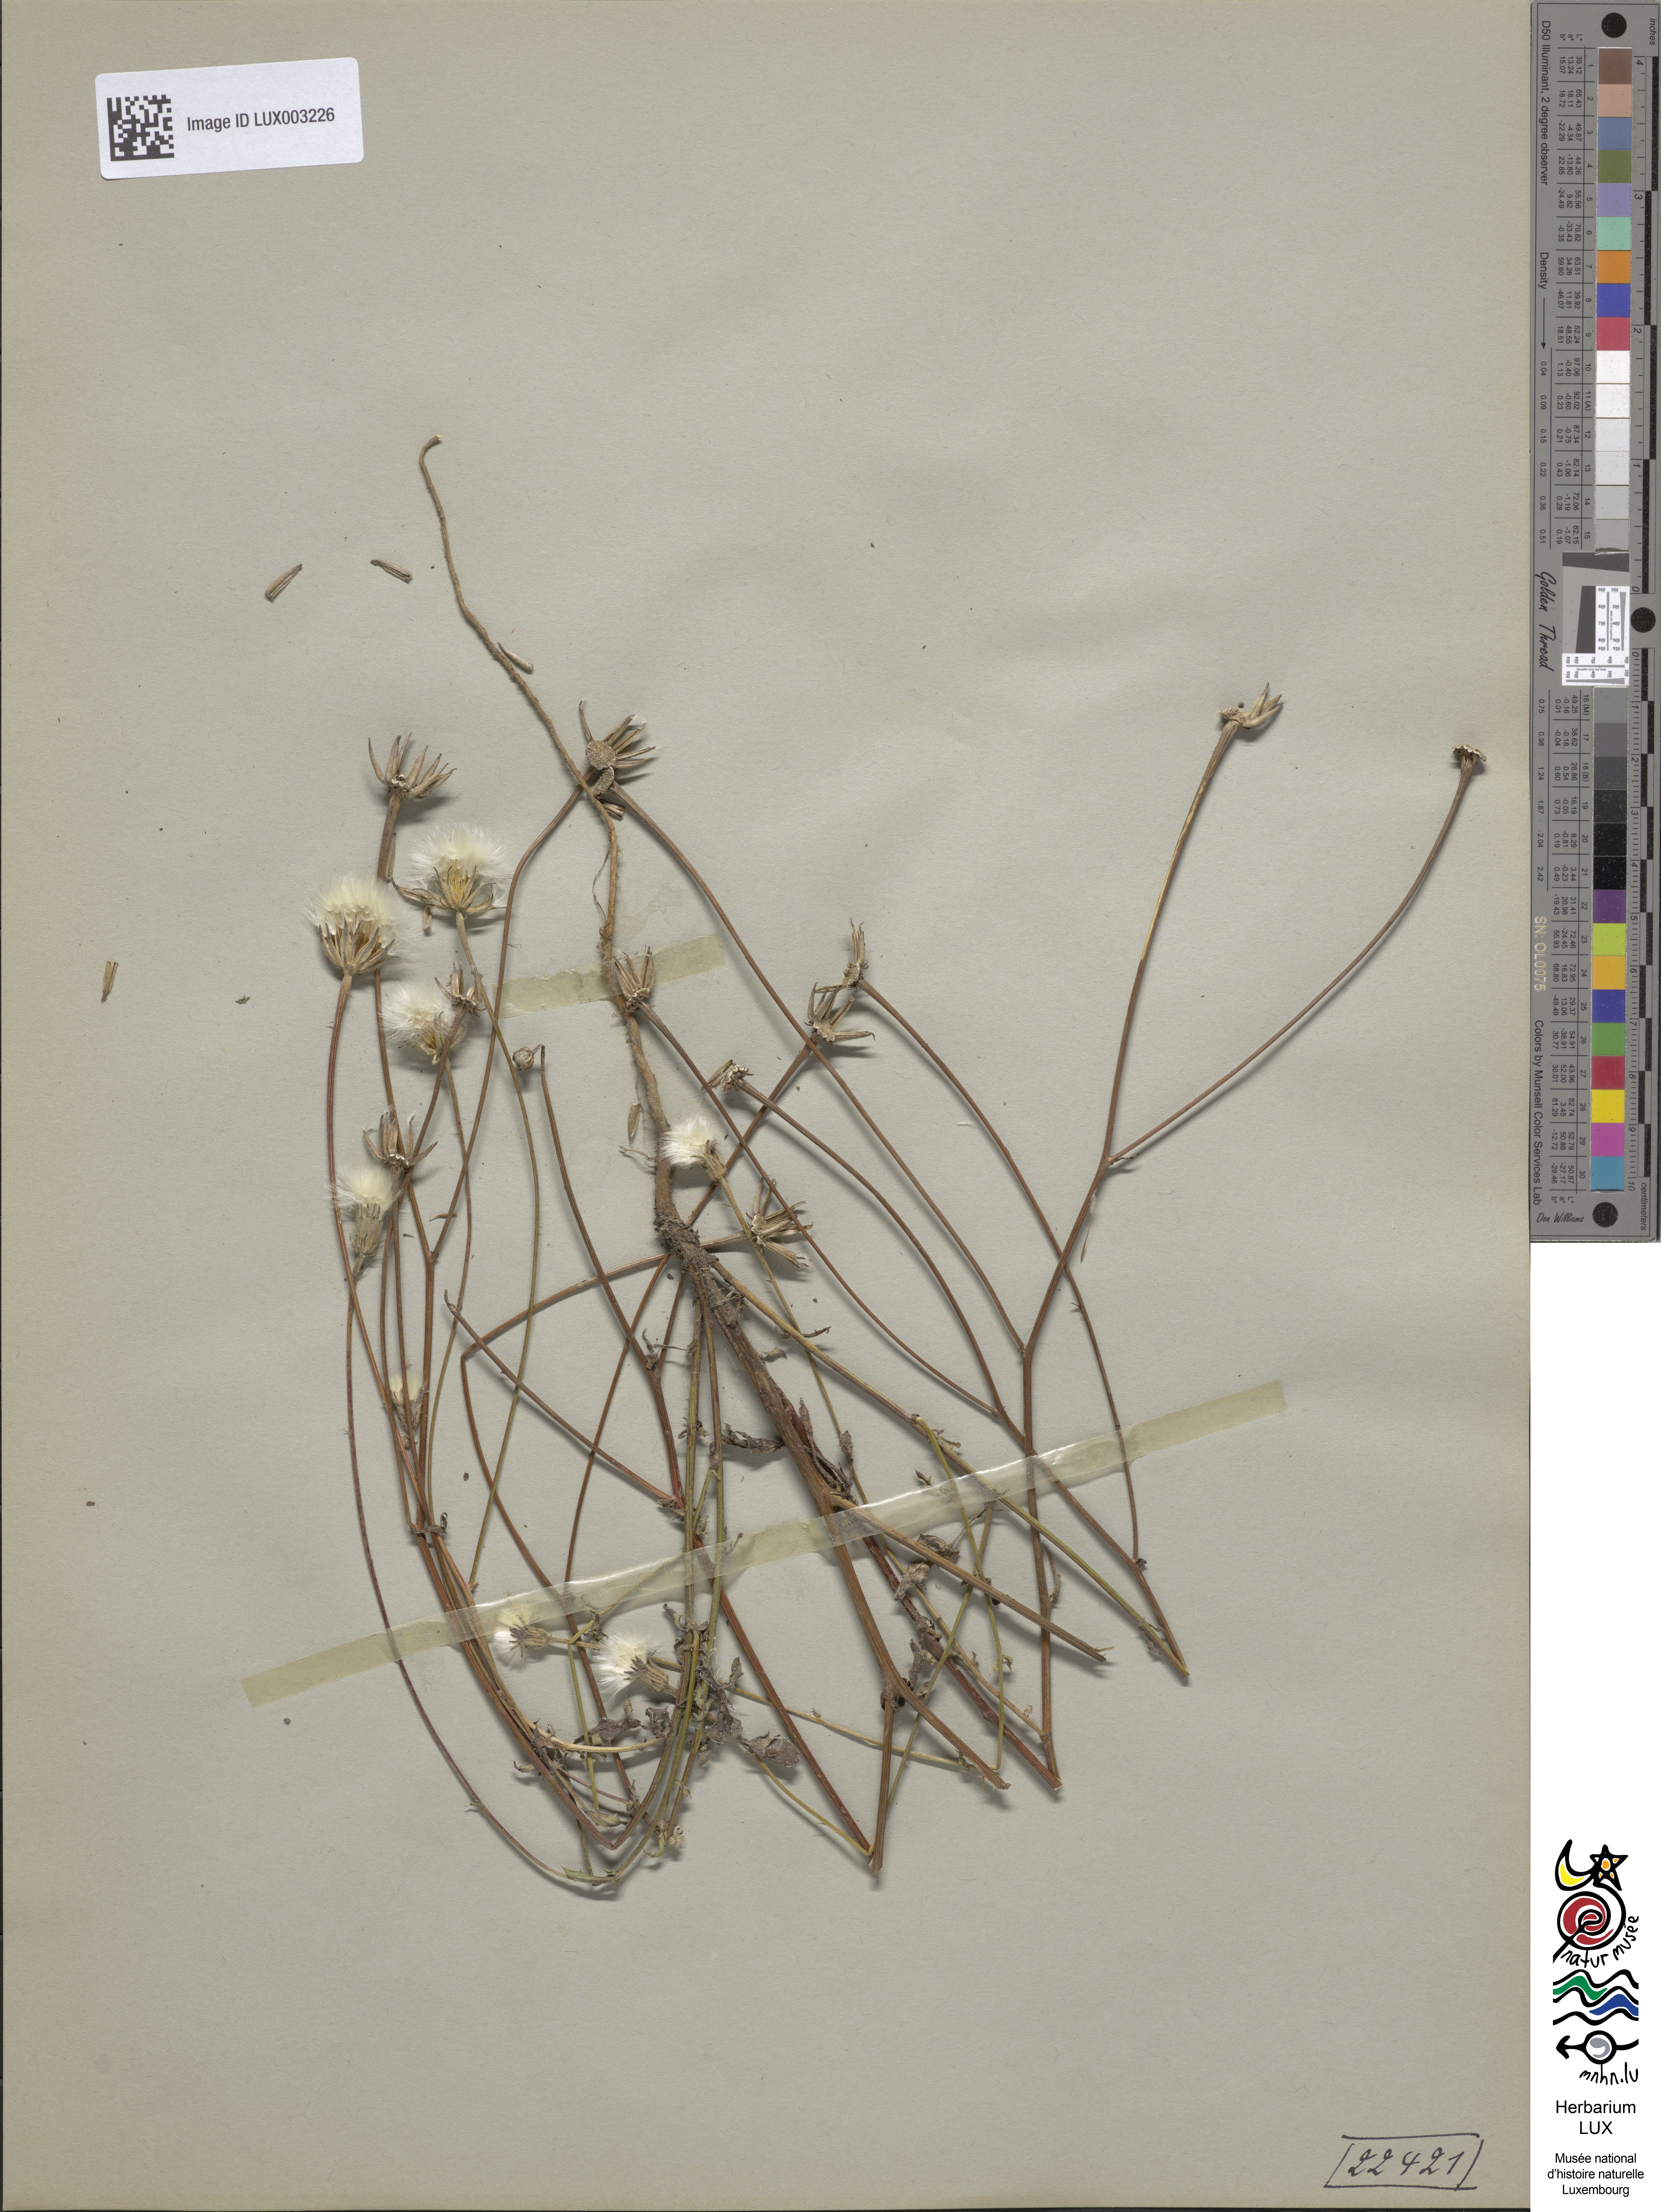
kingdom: Plantae
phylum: Tracheophyta
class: Magnoliopsida
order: Asterales
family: Asteraceae
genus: Crepis
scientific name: Crepis foetida
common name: Stinking hawk's-beard
